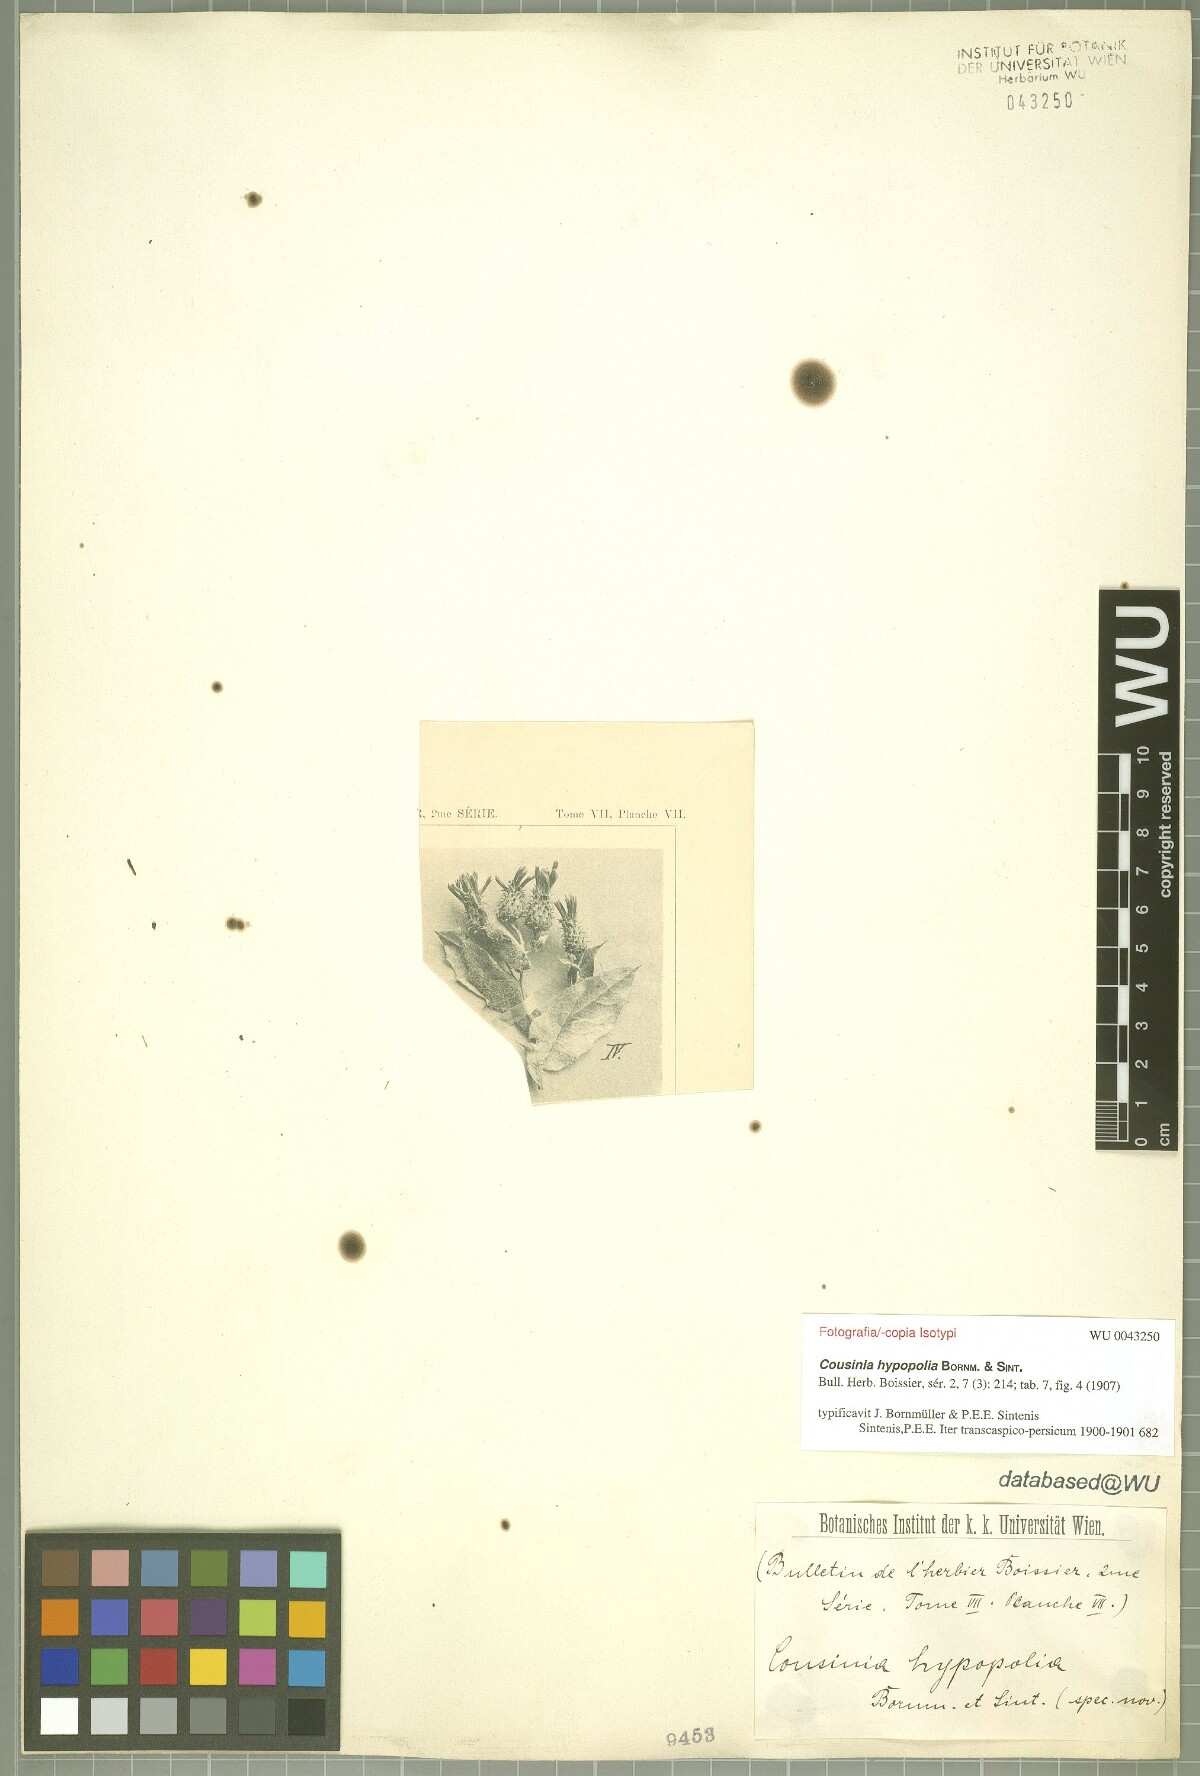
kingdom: Plantae
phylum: Tracheophyta
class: Magnoliopsida
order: Asterales
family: Asteraceae
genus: Cousinia
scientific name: Cousinia hypopolia
